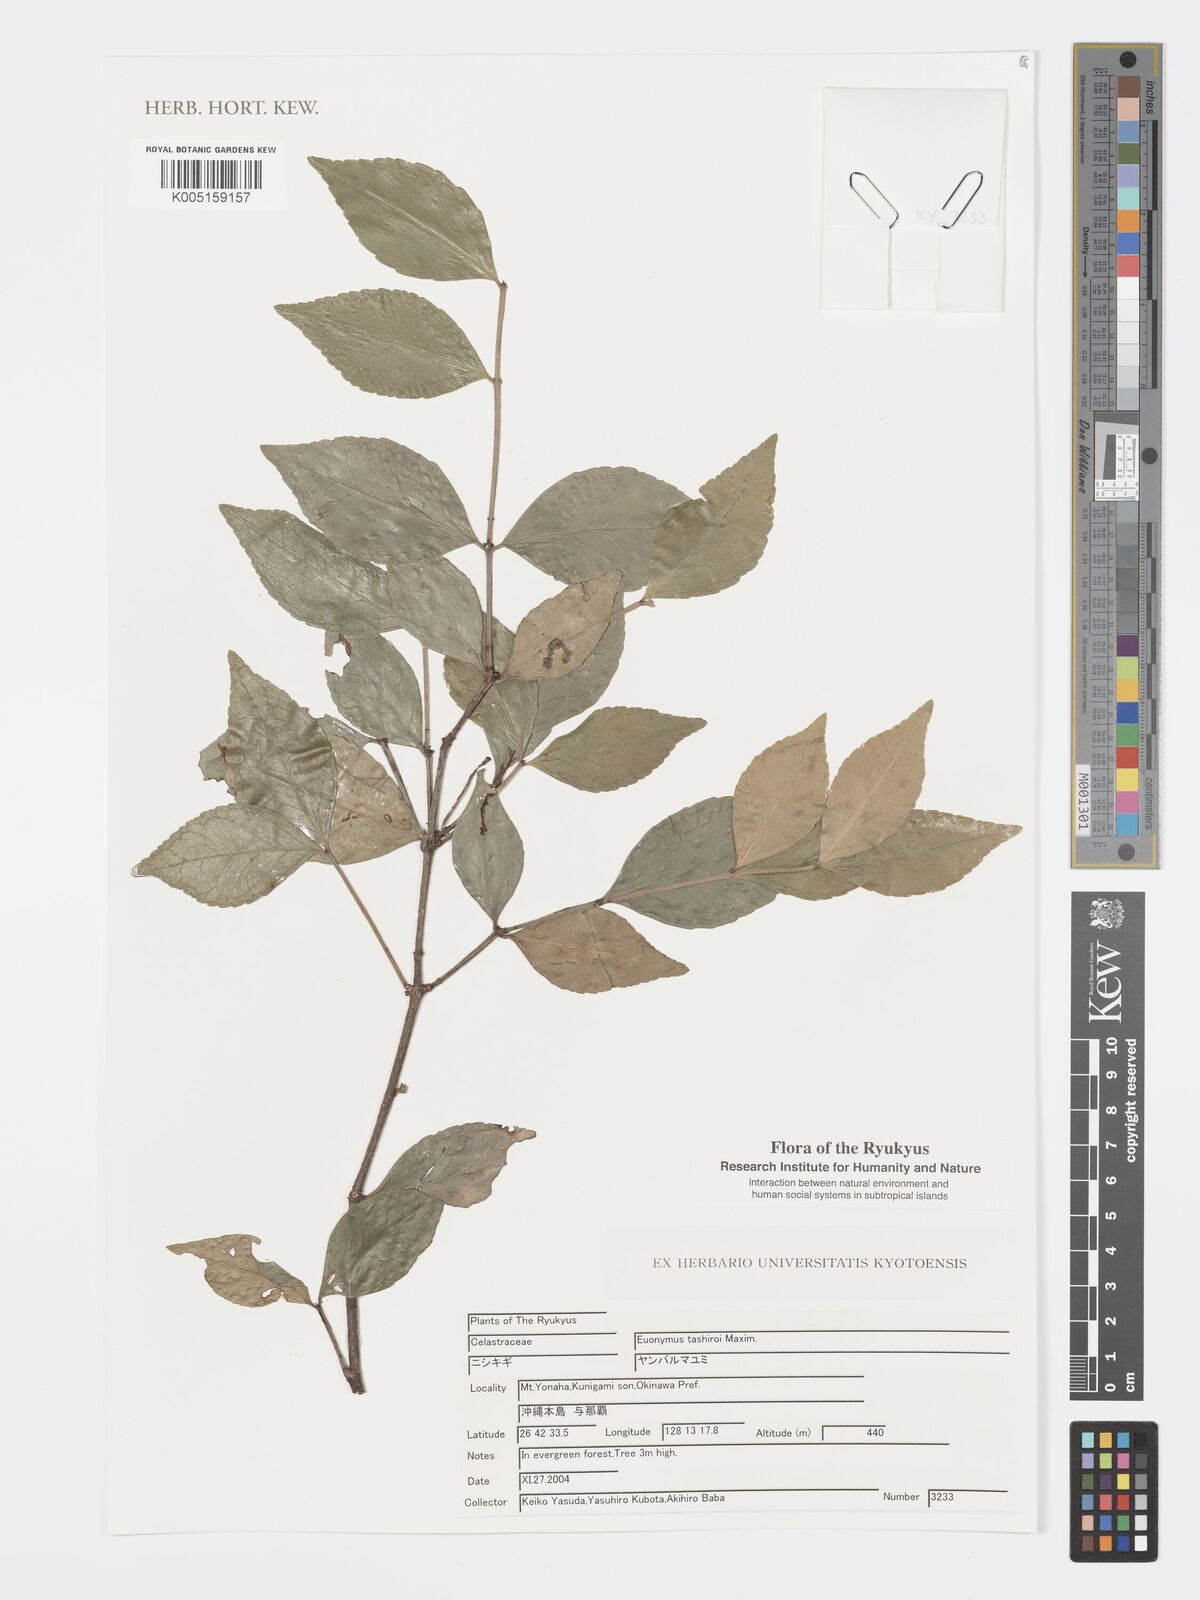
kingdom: Plantae
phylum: Tracheophyta
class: Magnoliopsida
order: Celastrales
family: Celastraceae
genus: Euonymus
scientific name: Euonymus tashiroi
